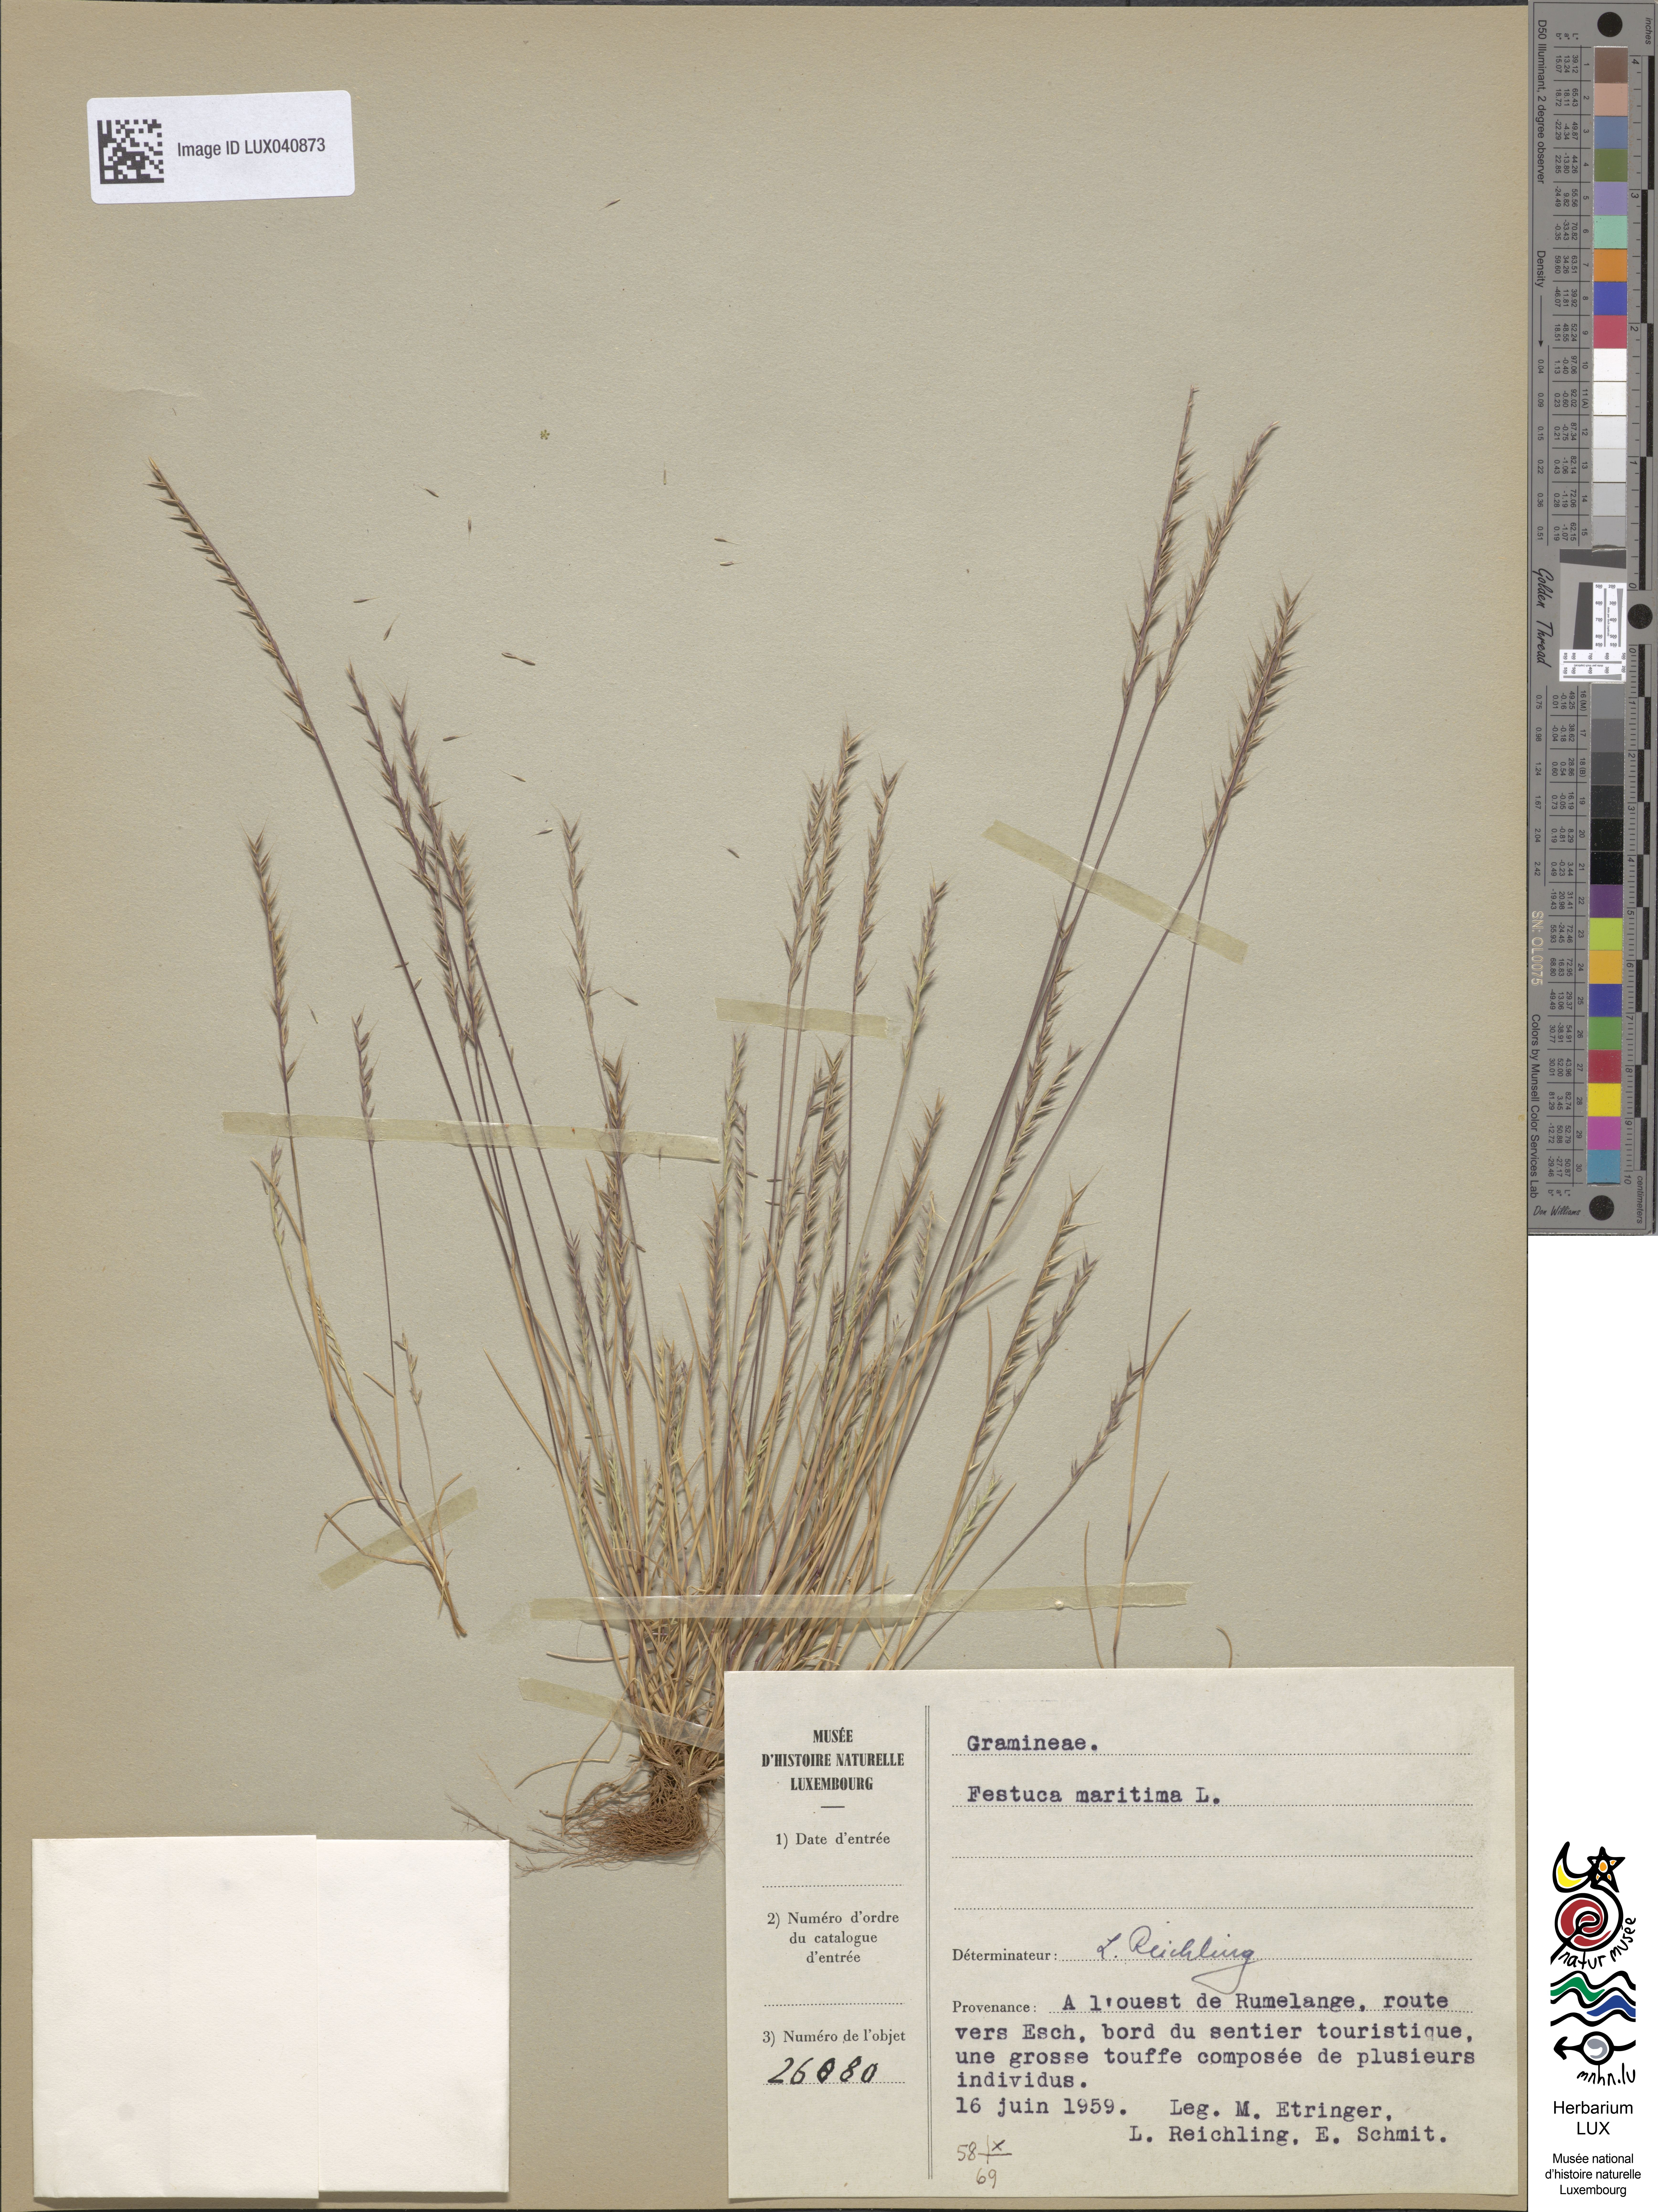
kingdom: Plantae
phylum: Tracheophyta
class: Liliopsida
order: Poales
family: Poaceae
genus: Festuca
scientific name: Festuca maritima
